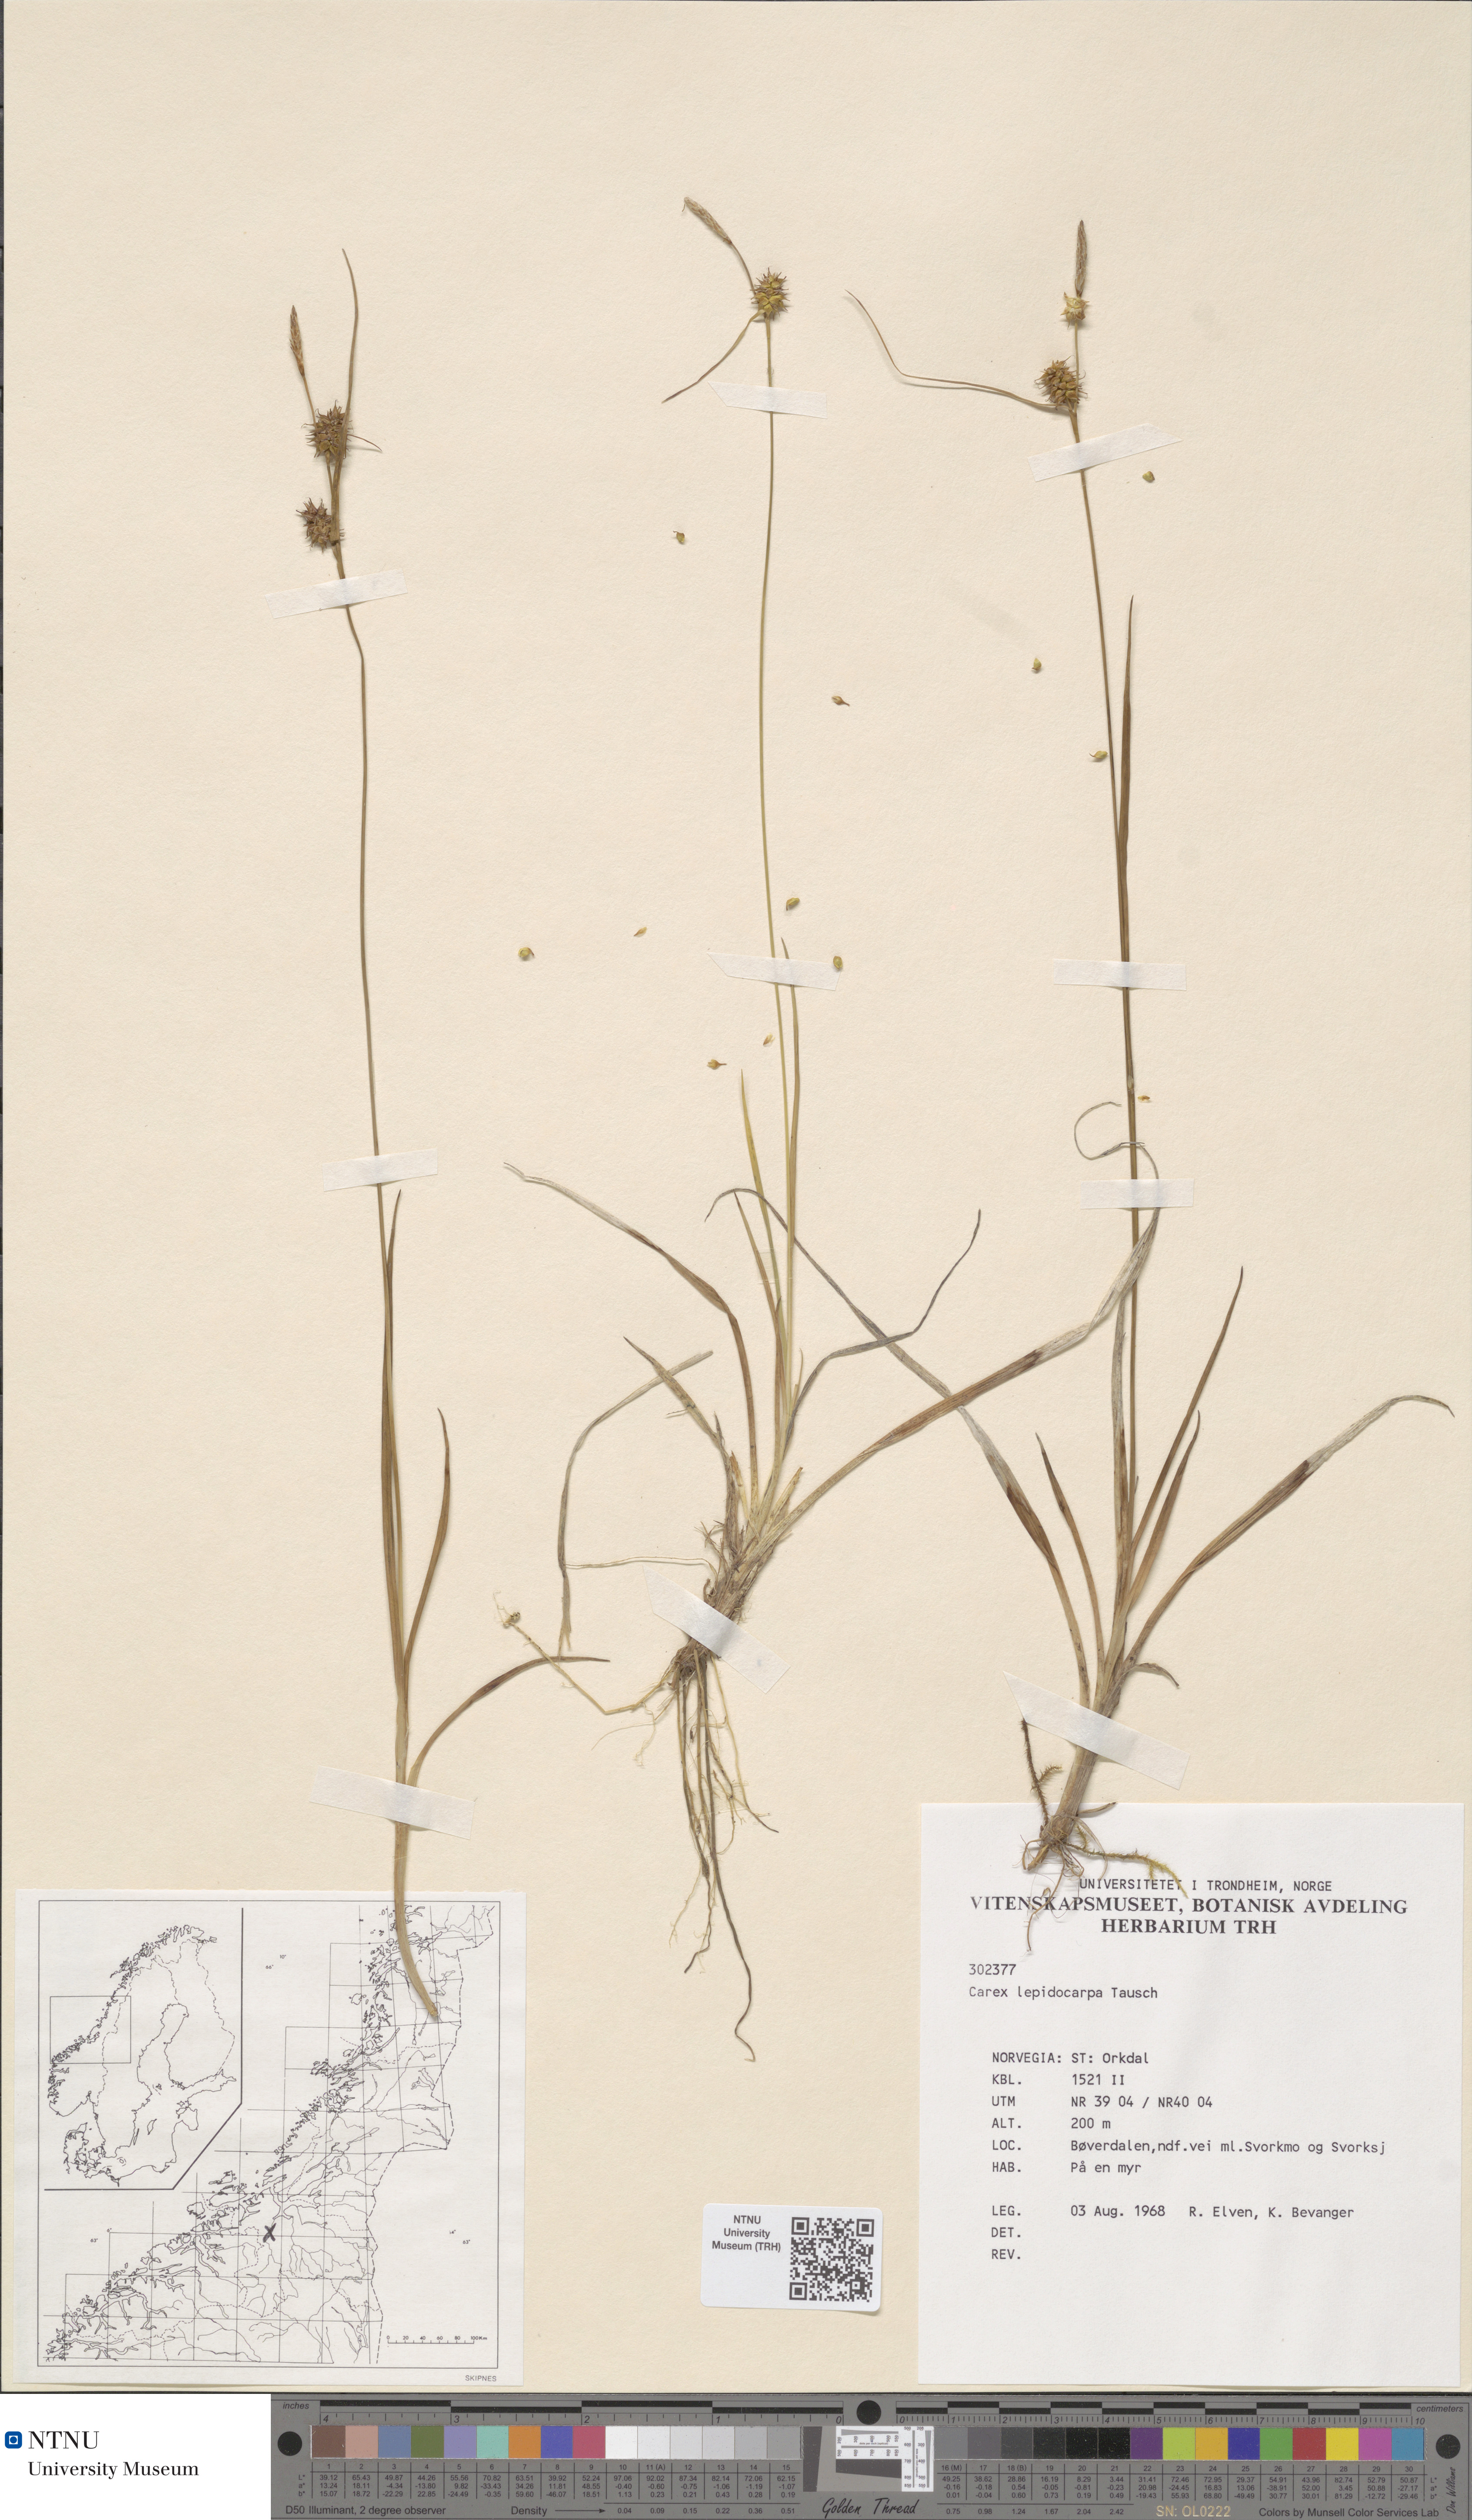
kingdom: Plantae
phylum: Tracheophyta
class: Liliopsida
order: Poales
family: Cyperaceae
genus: Carex
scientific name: Carex lepidocarpa
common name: Long-stalked yellow-sedge
